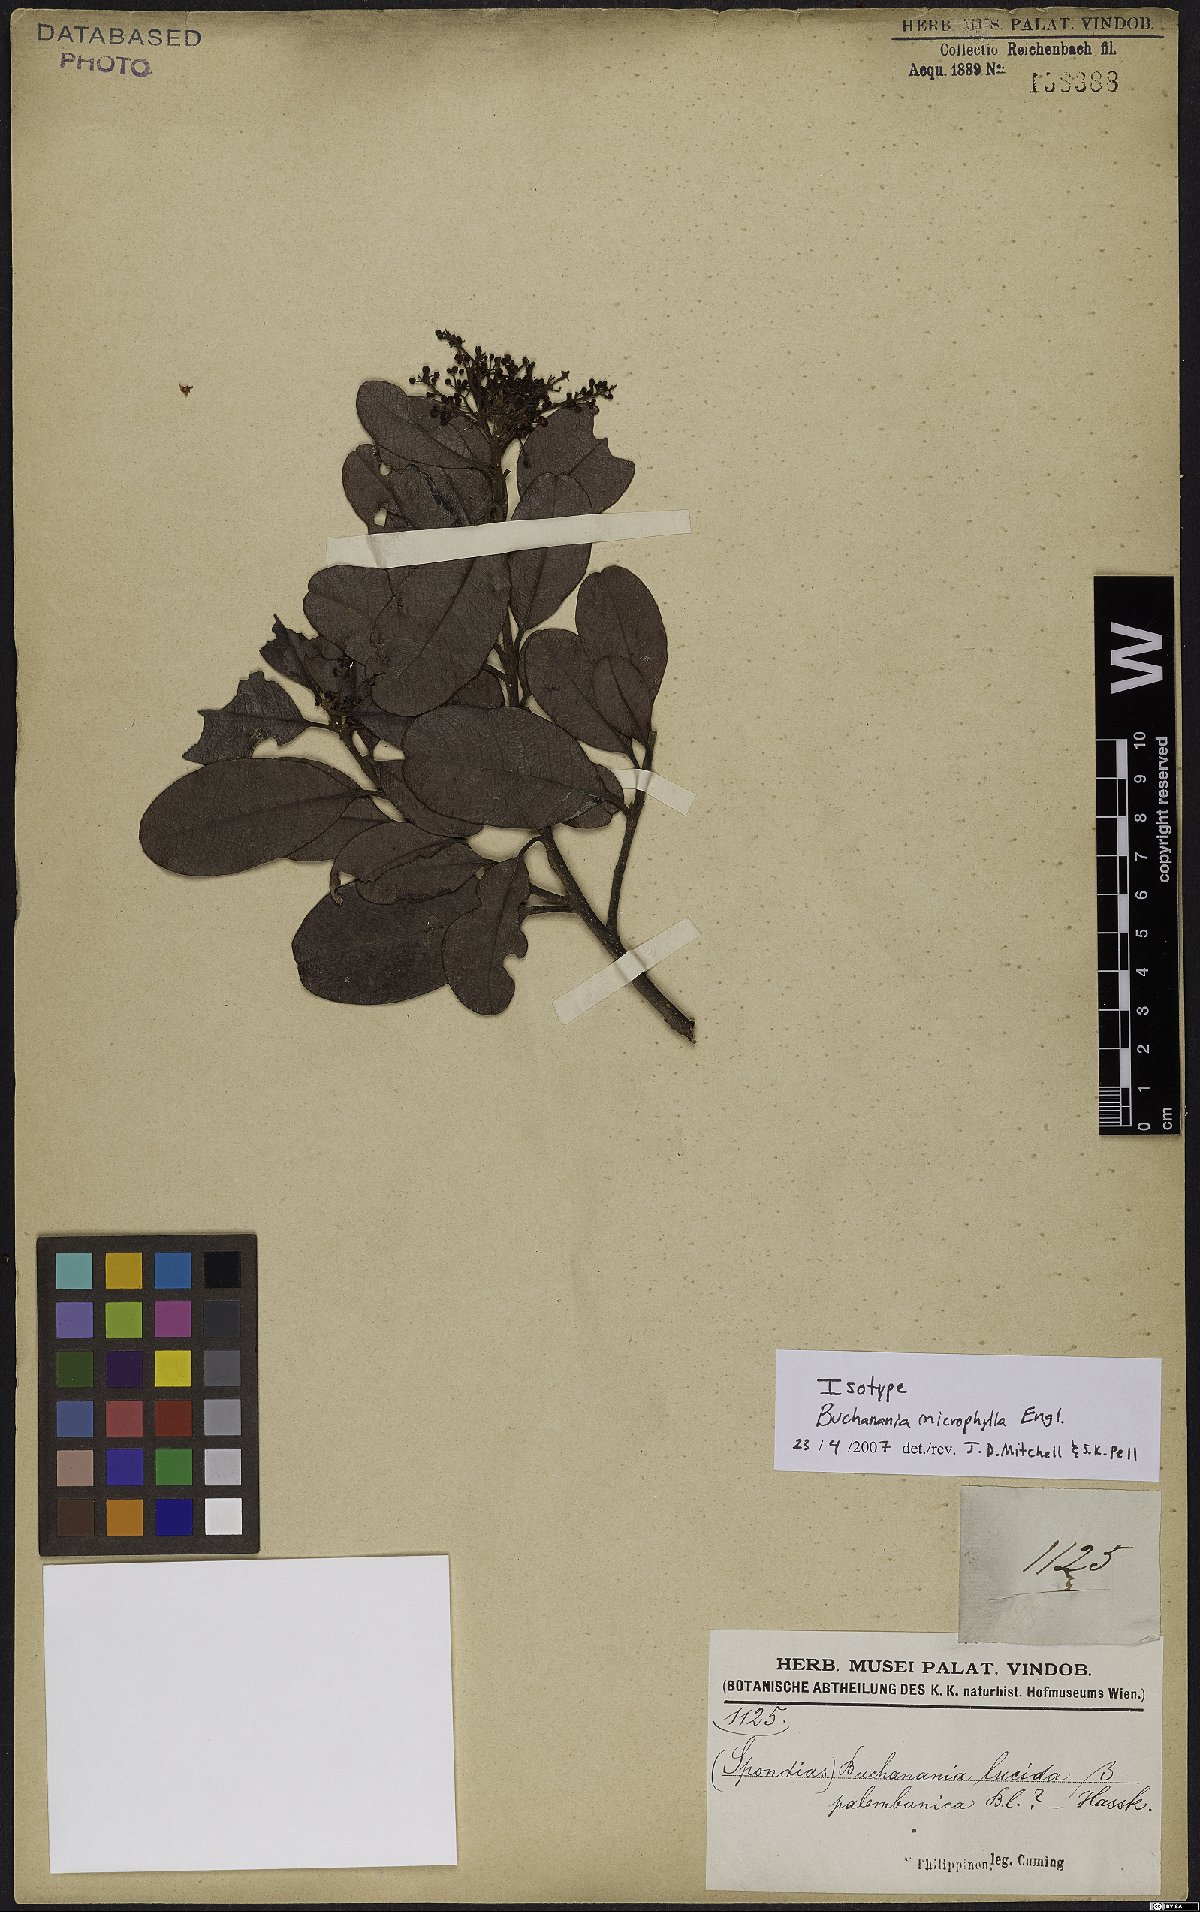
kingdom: Plantae
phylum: Tracheophyta
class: Magnoliopsida
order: Sapindales
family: Anacardiaceae
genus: Buchanania
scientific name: Buchanania microphylla
